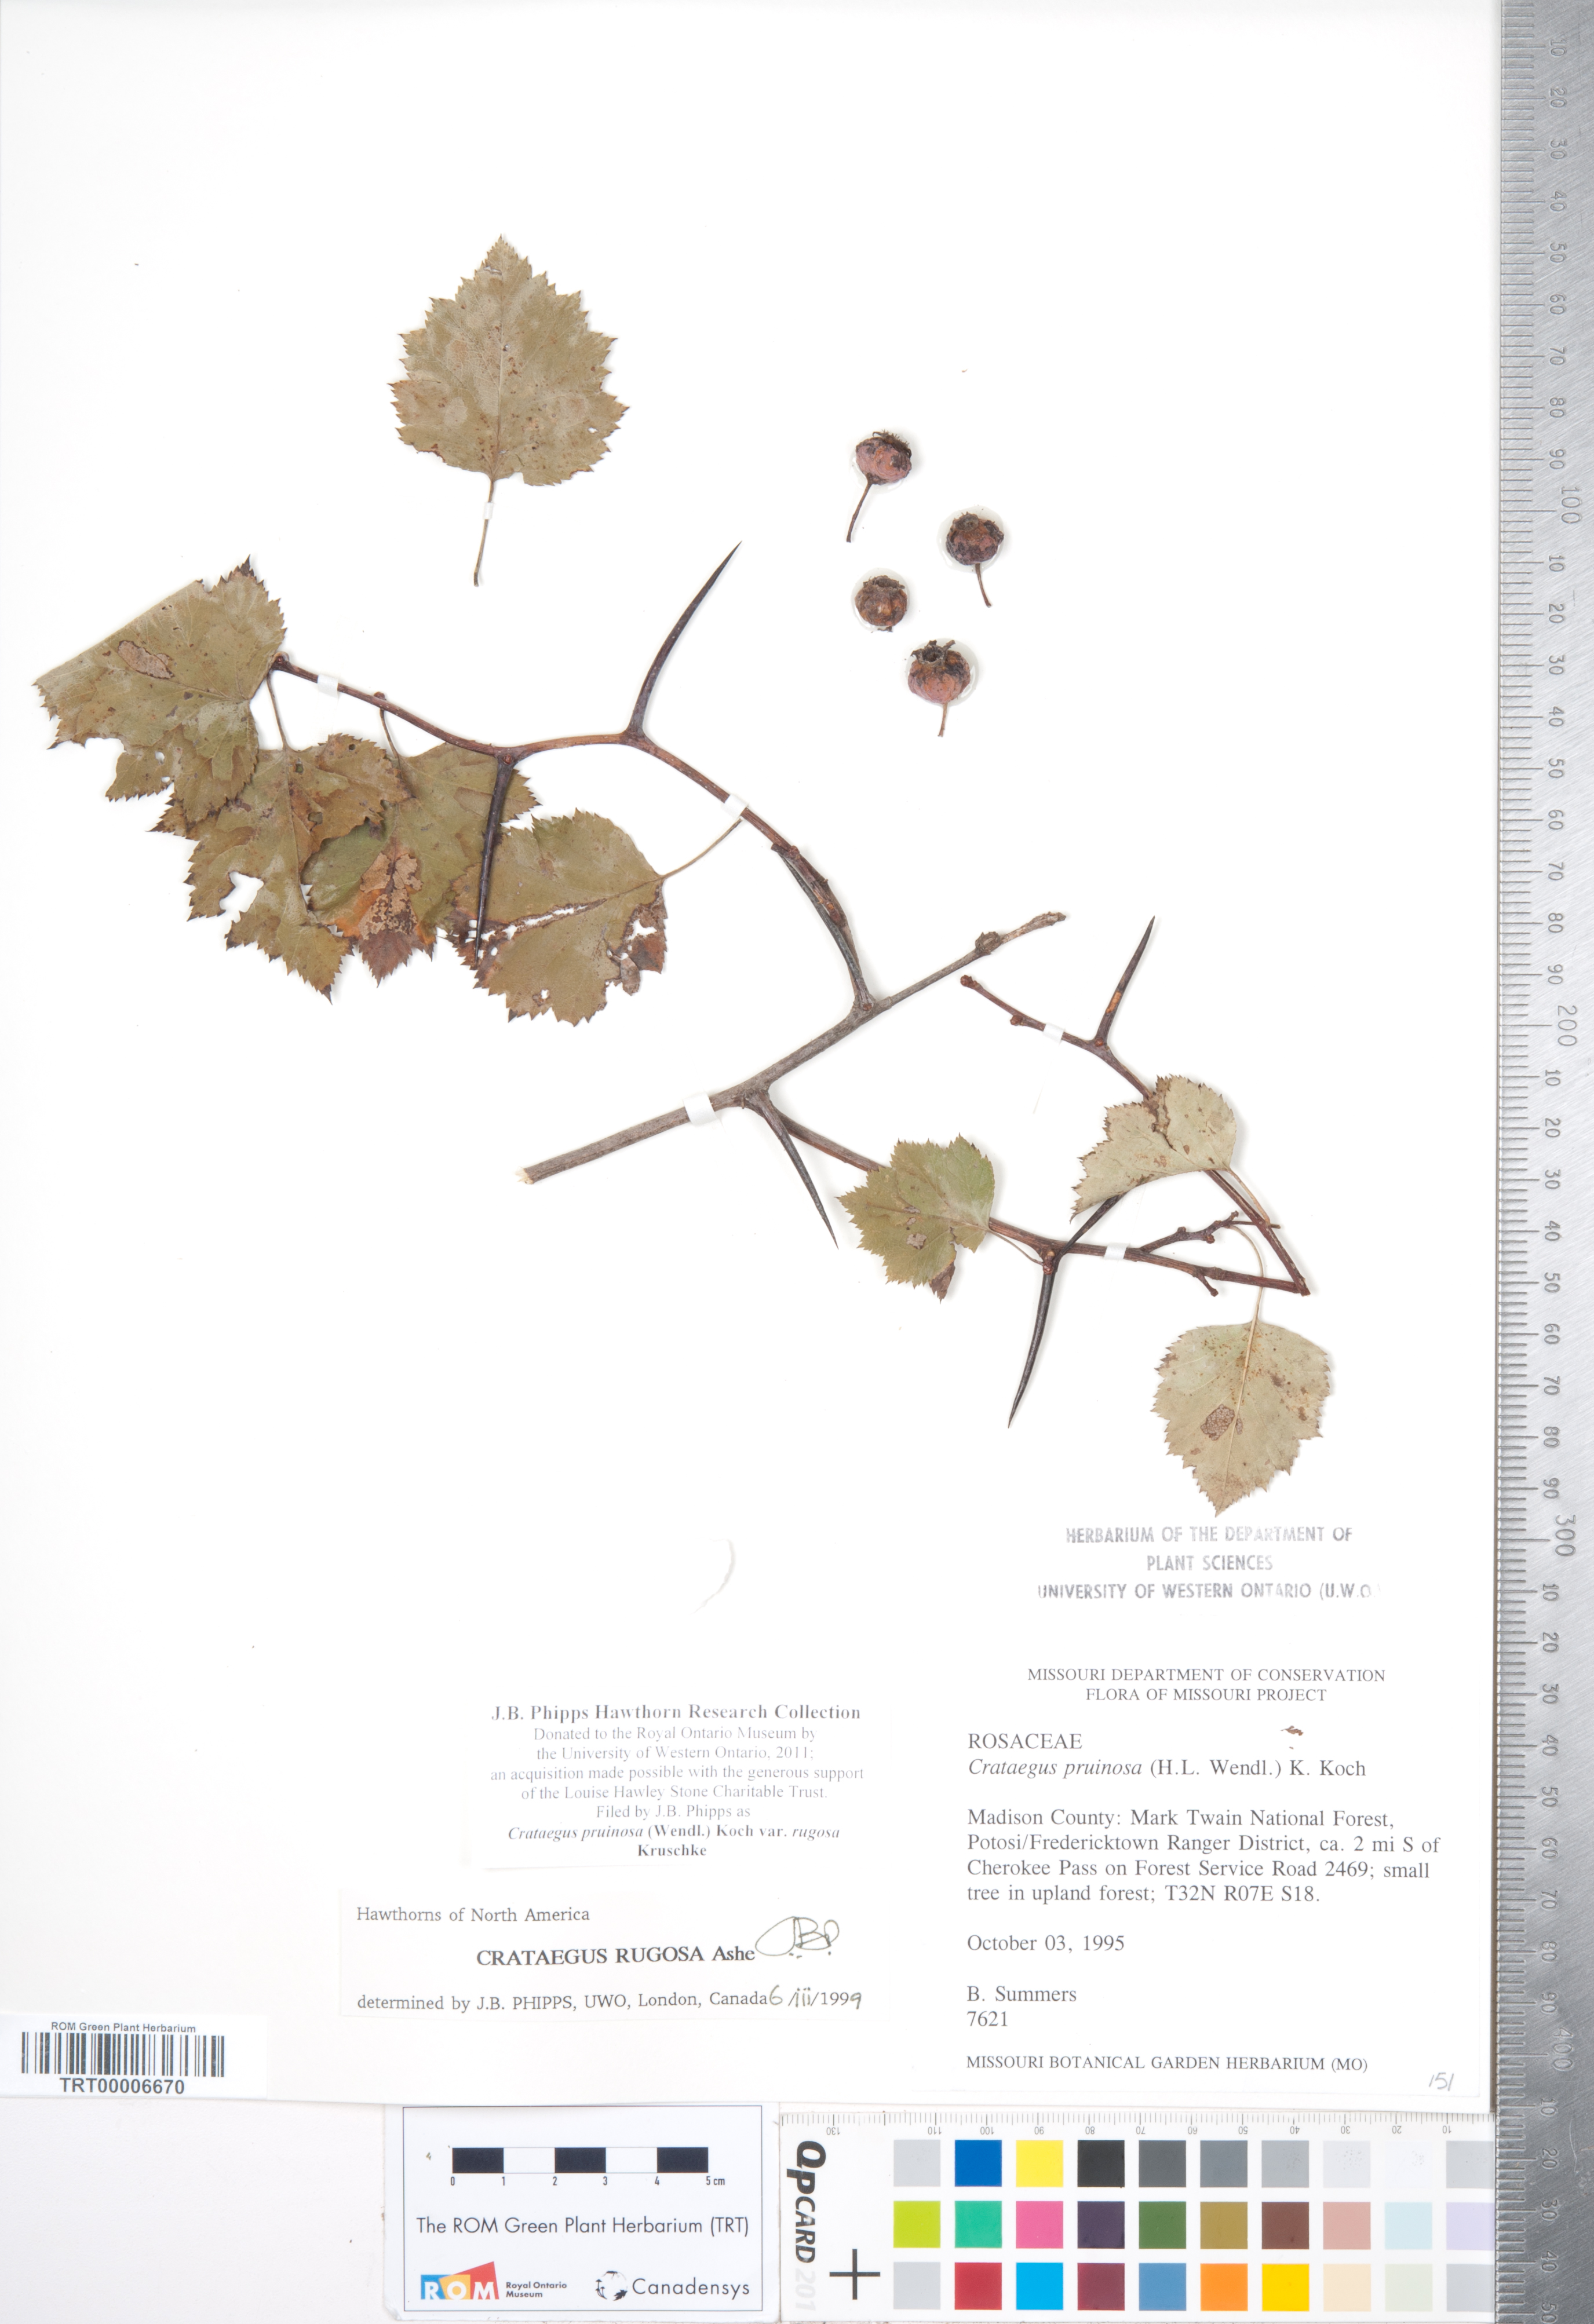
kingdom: Plantae
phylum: Tracheophyta
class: Magnoliopsida
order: Rosales
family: Rosaceae
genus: Crataegus
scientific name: Crataegus pruinosa
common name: Waxy-fruit hawthorn
